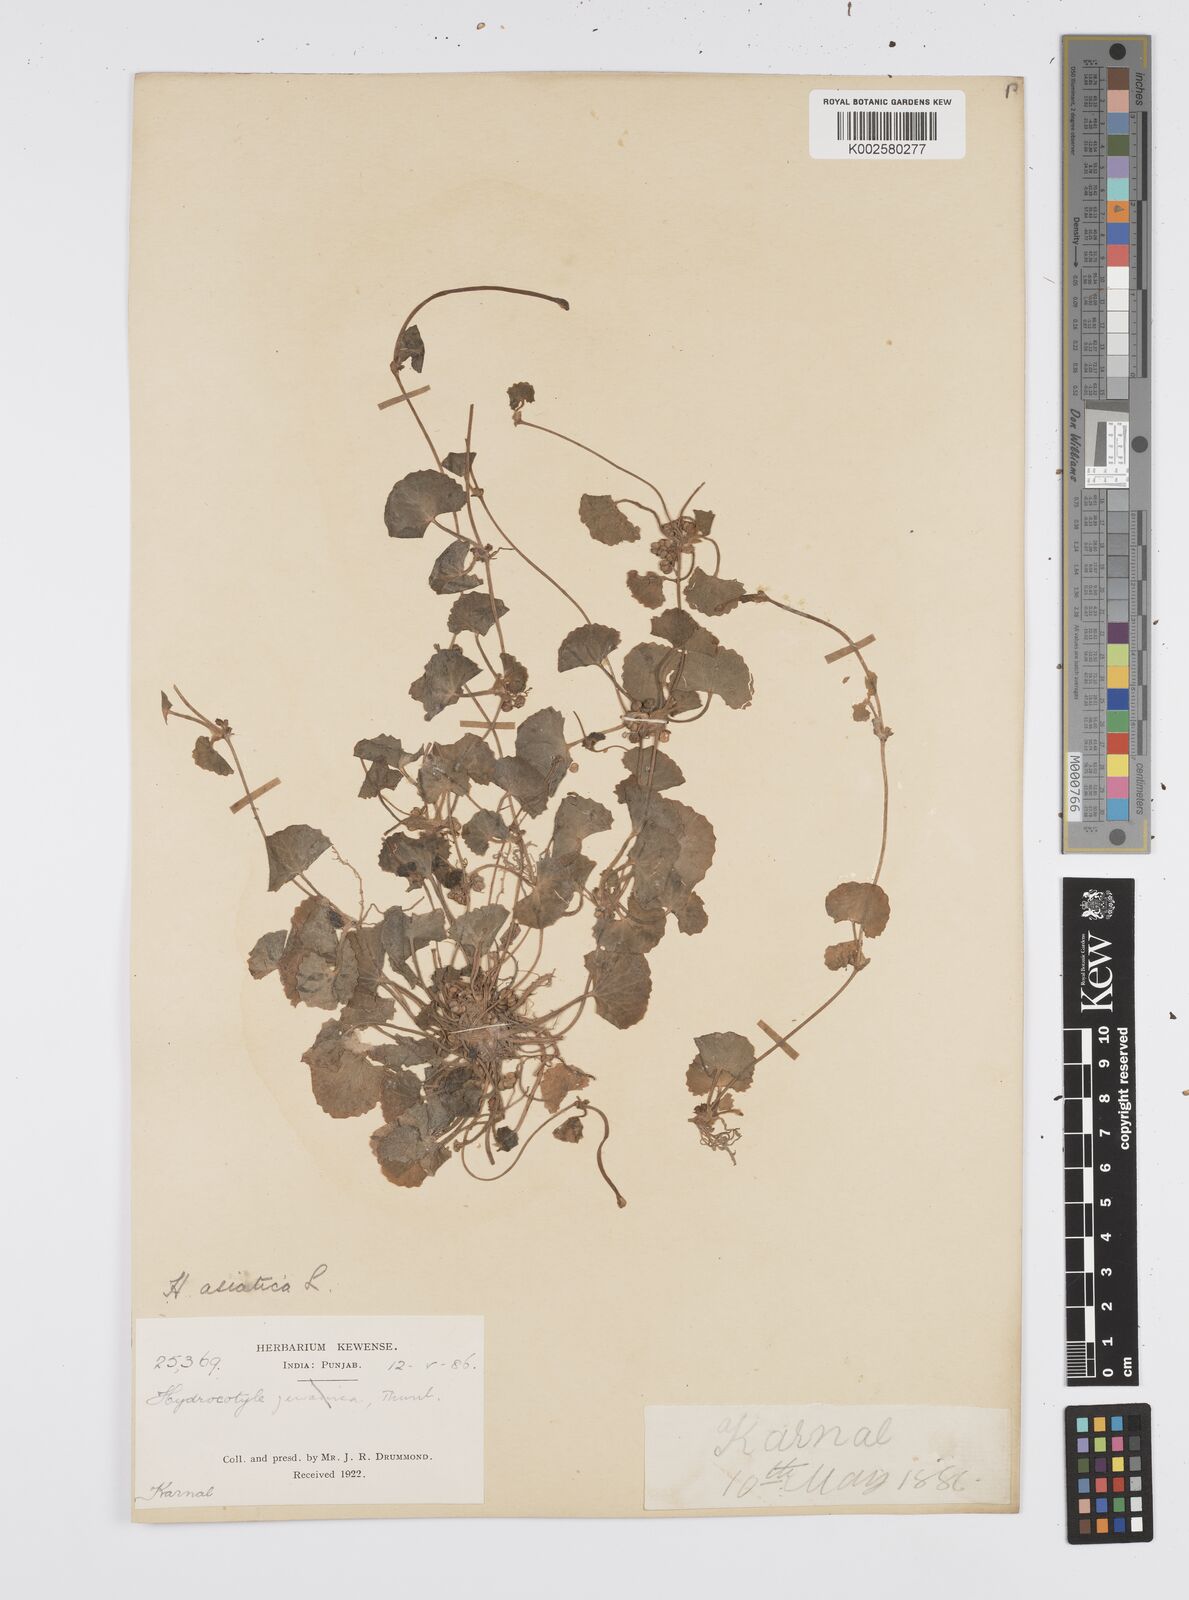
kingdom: Plantae
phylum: Tracheophyta
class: Magnoliopsida
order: Apiales
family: Apiaceae
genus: Centella
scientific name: Centella asiatica
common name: Spadeleaf
